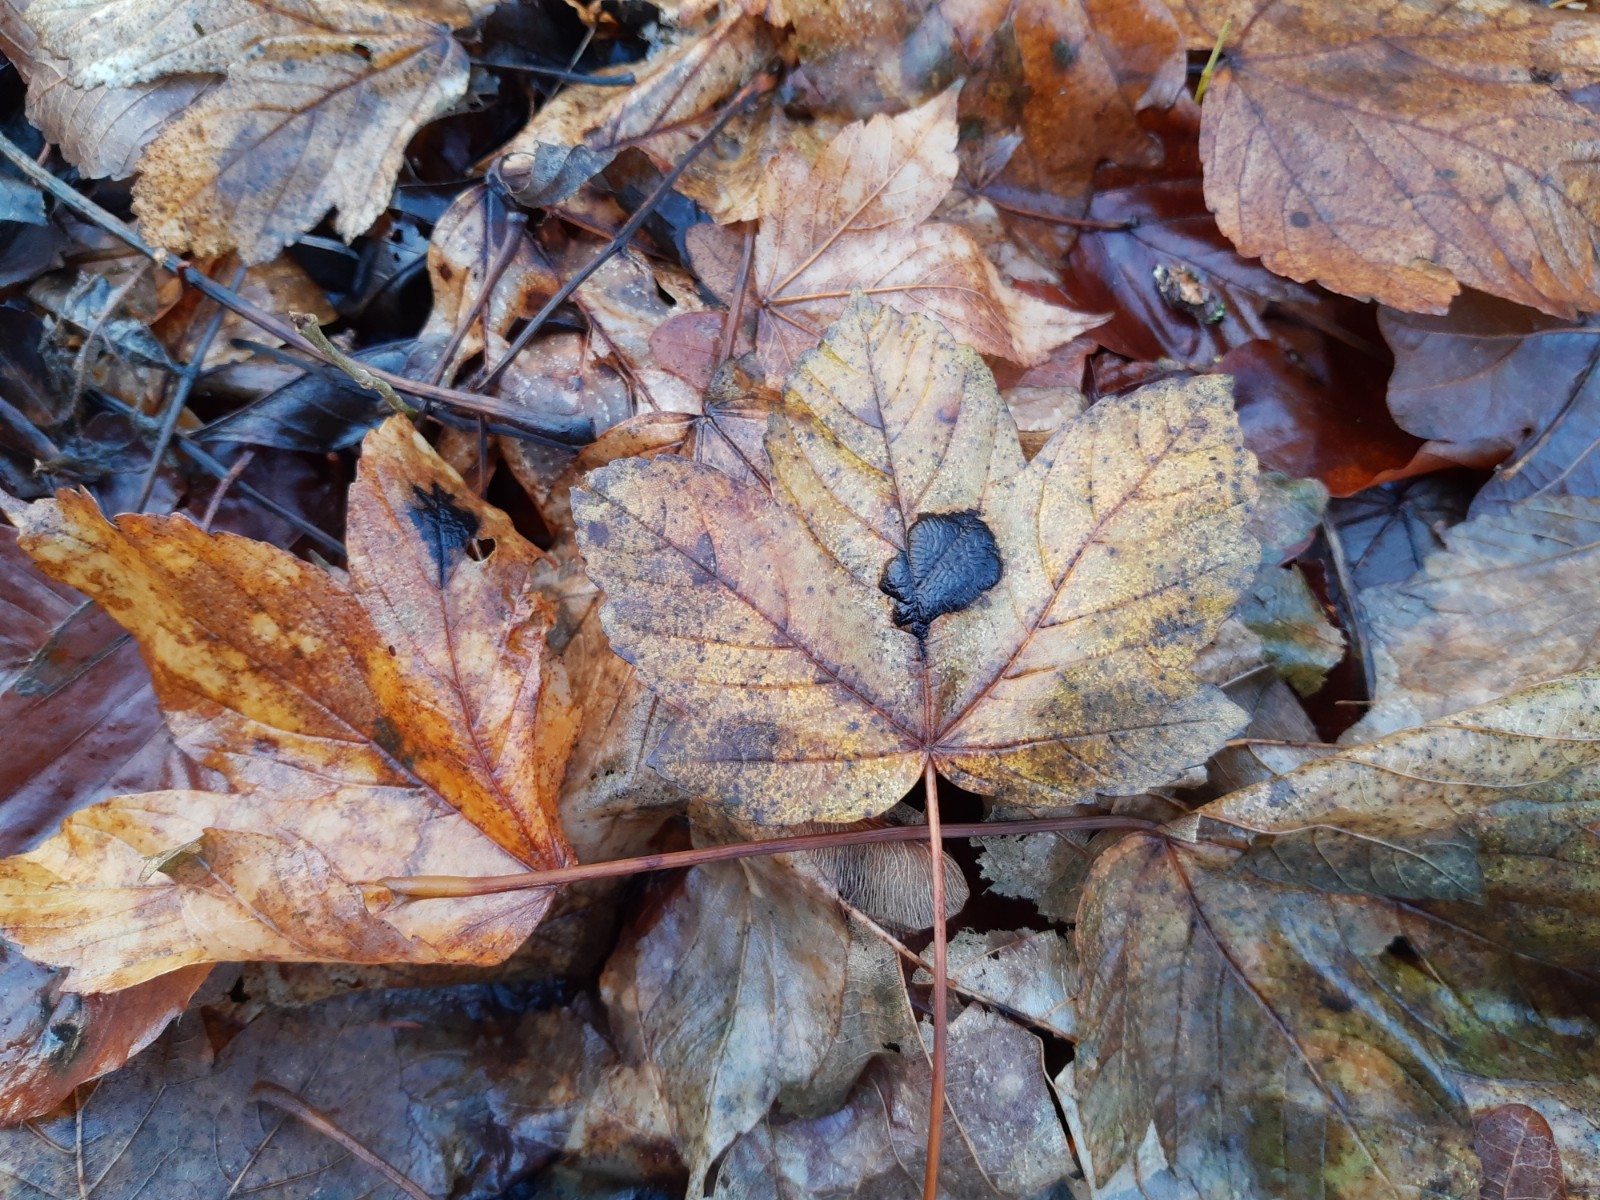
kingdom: Fungi
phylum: Ascomycota
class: Leotiomycetes
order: Rhytismatales
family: Rhytismataceae
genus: Rhytisma
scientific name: Rhytisma acerinum
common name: ahorn-rynkeplet
